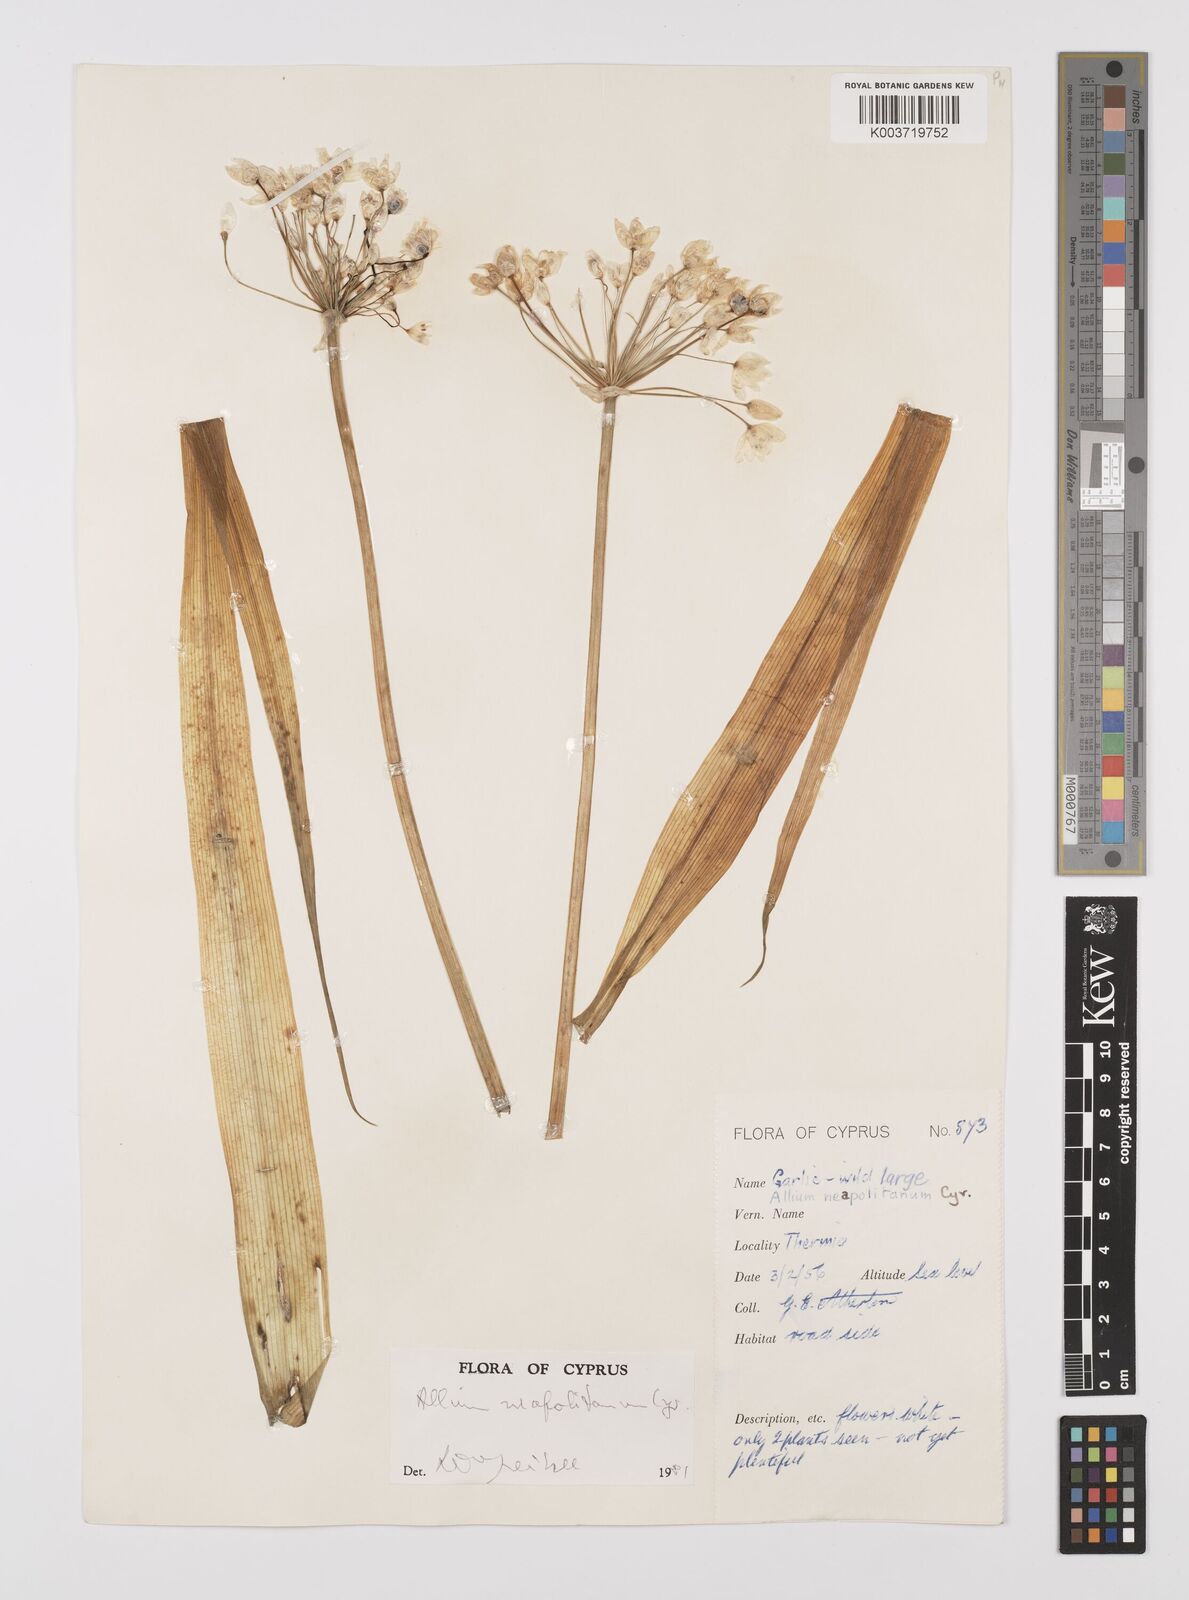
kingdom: Plantae
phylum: Tracheophyta
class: Liliopsida
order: Asparagales
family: Amaryllidaceae
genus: Allium
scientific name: Allium neapolitanum
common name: Neapolitan garlic
